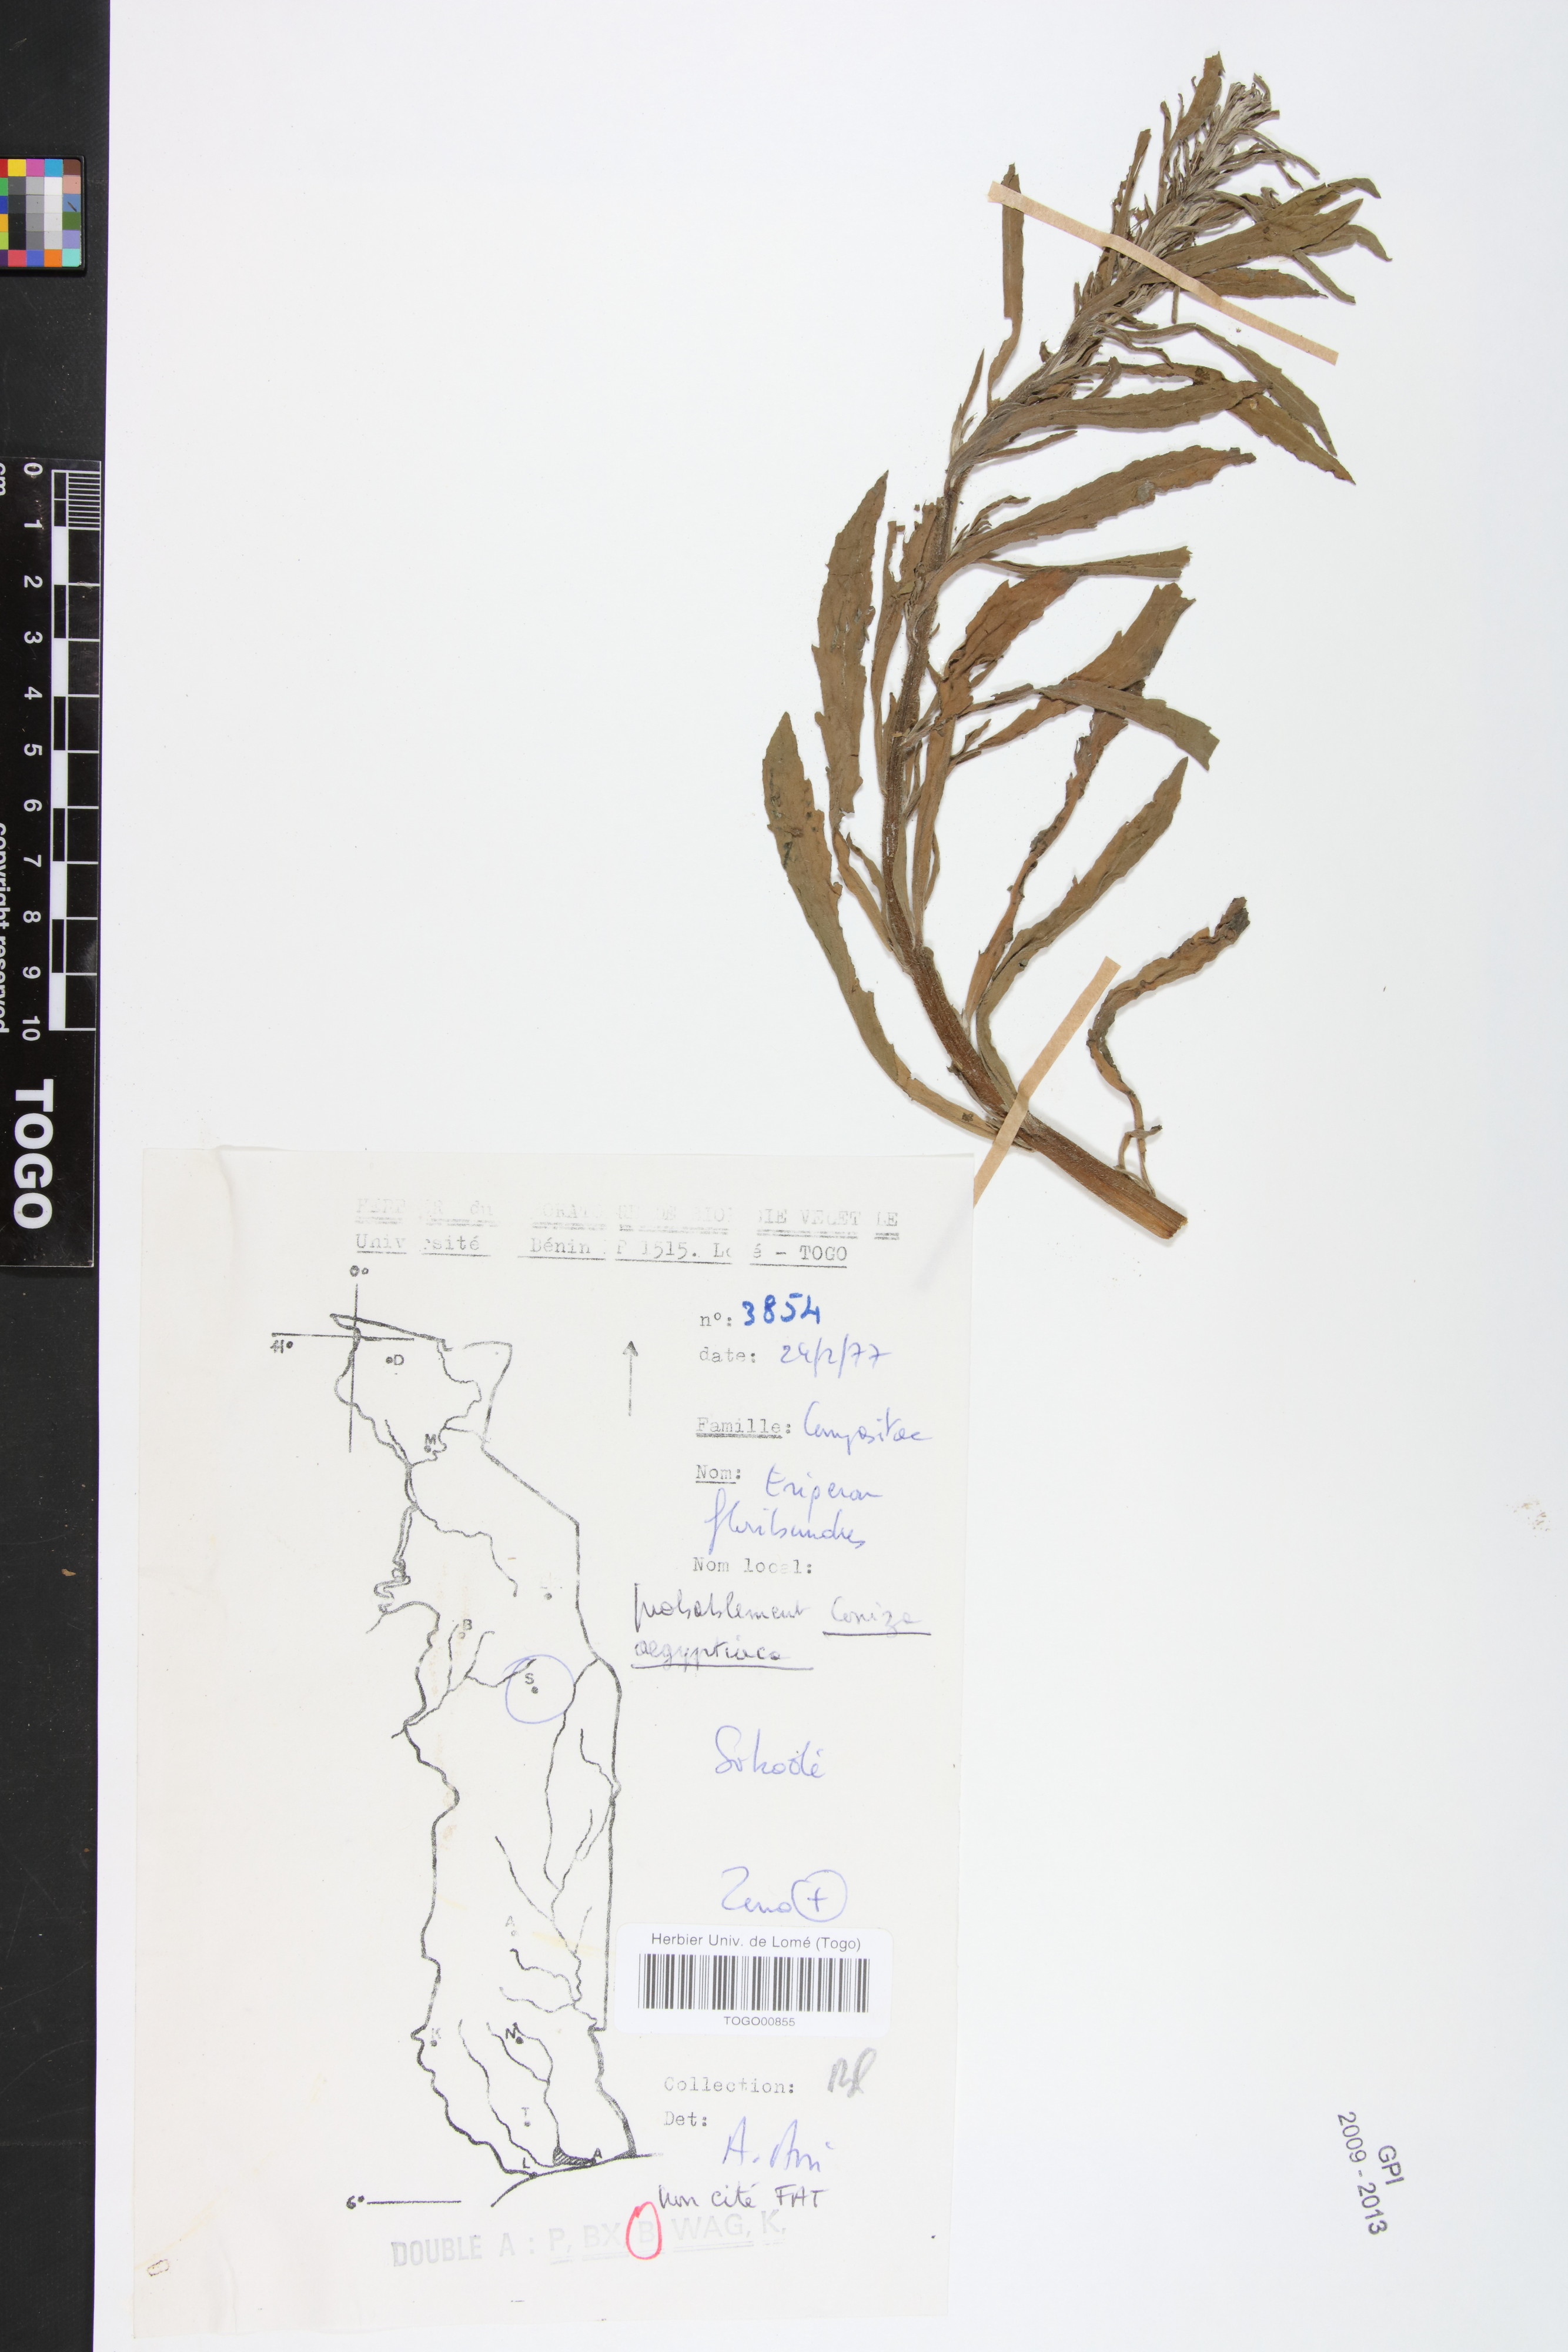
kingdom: Plantae
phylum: Tracheophyta
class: Magnoliopsida
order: Asterales
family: Asteraceae
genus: Nidorella
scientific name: Nidorella aegyptiaca
